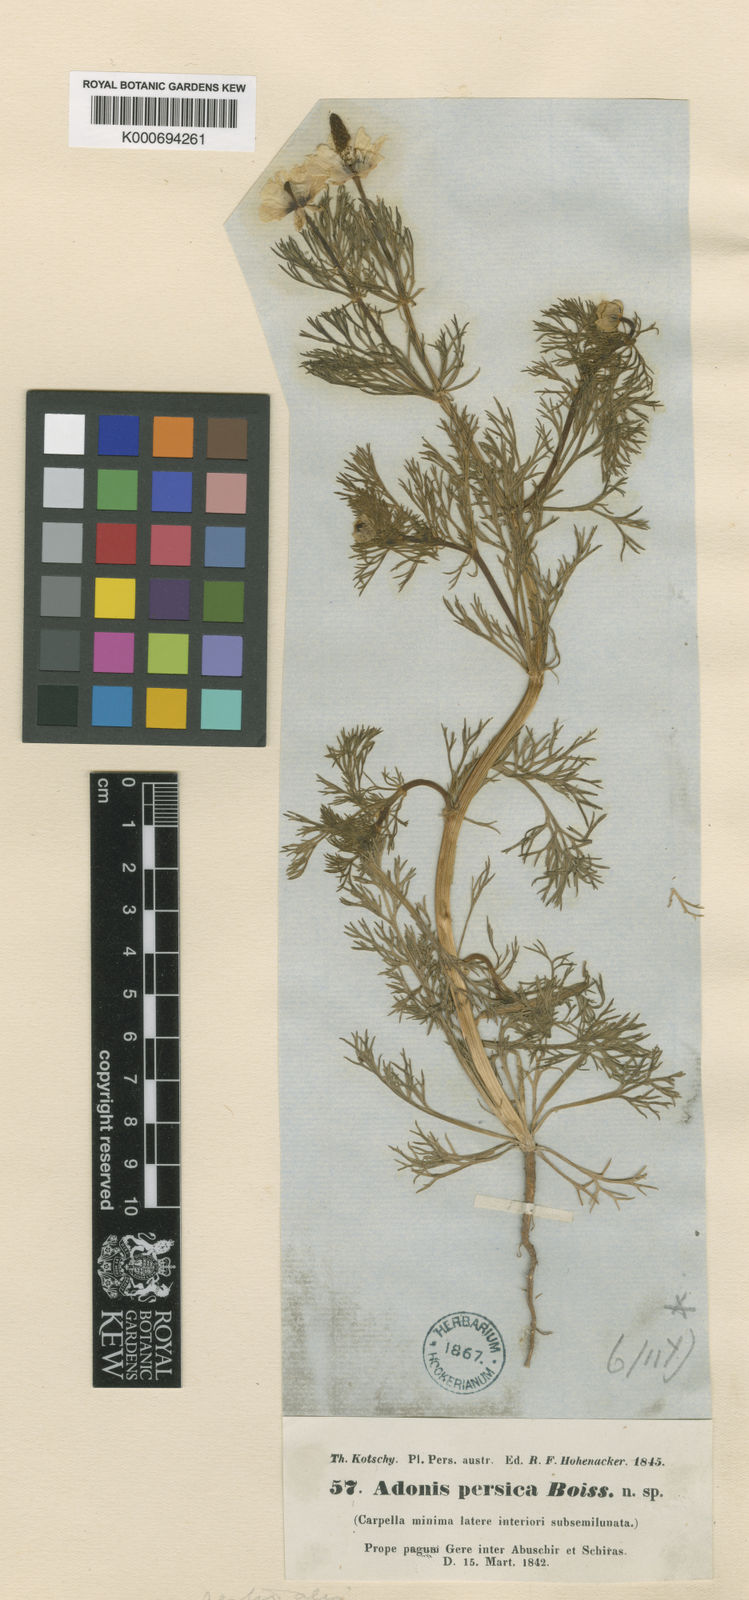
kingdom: Plantae
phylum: Tracheophyta
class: Magnoliopsida
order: Ranunculales
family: Ranunculaceae
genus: Adonis
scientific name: Adonis
